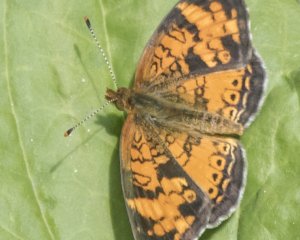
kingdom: Animalia
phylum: Arthropoda
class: Insecta
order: Lepidoptera
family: Nymphalidae
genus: Phyciodes
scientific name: Phyciodes tharos
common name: Northern Crescent
